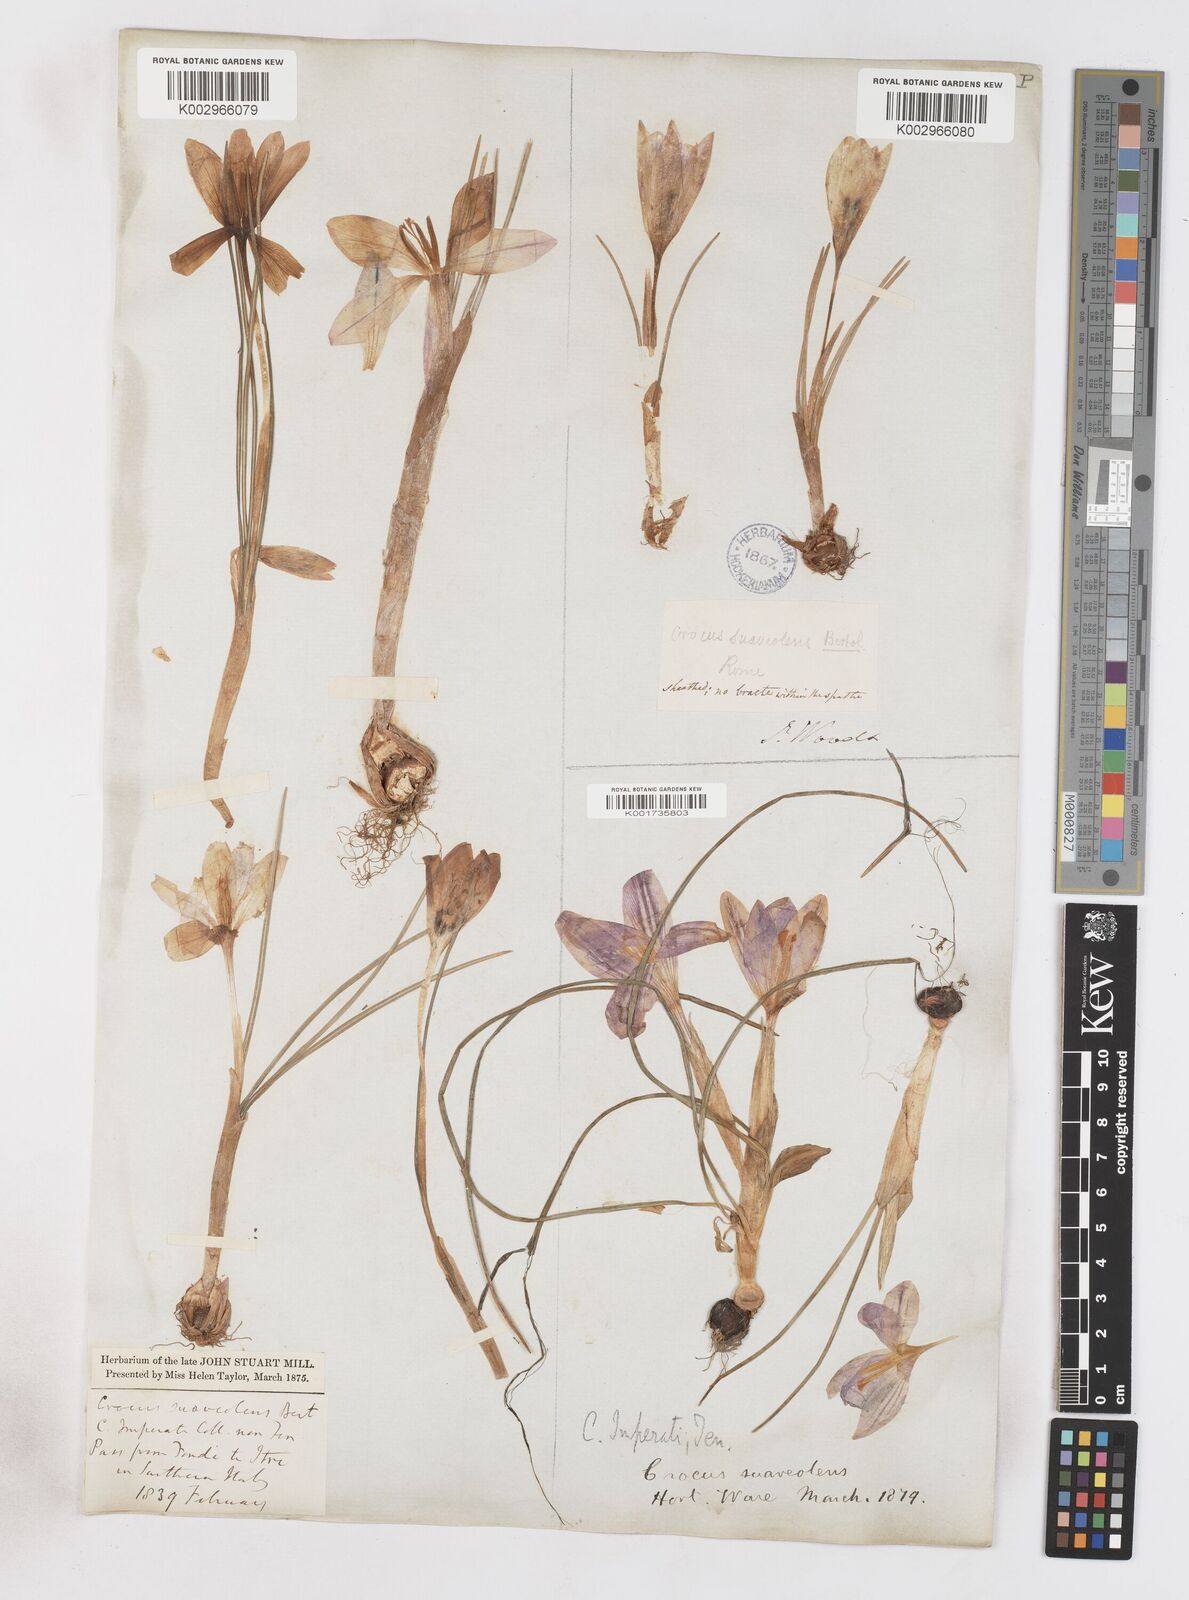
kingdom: Plantae
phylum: Tracheophyta
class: Liliopsida
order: Asparagales
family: Iridaceae
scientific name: Iridaceae
